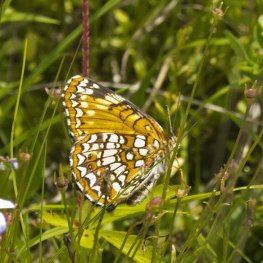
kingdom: Animalia
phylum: Arthropoda
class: Insecta
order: Lepidoptera
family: Nymphalidae
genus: Chlosyne
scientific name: Chlosyne harrisii
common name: Harris's Checkerspot
